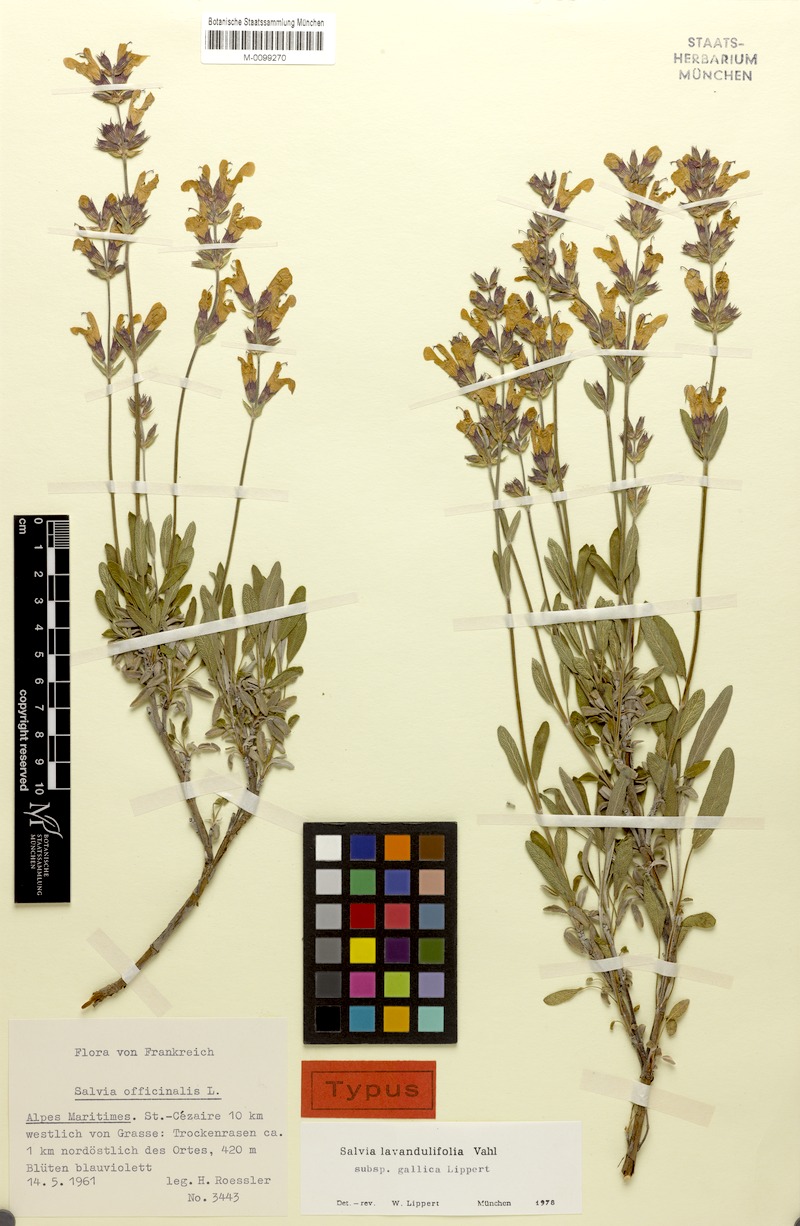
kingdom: Plantae
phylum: Tracheophyta
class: Magnoliopsida
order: Lamiales
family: Lamiaceae
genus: Salvia
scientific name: Salvia officinalis
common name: Sage
